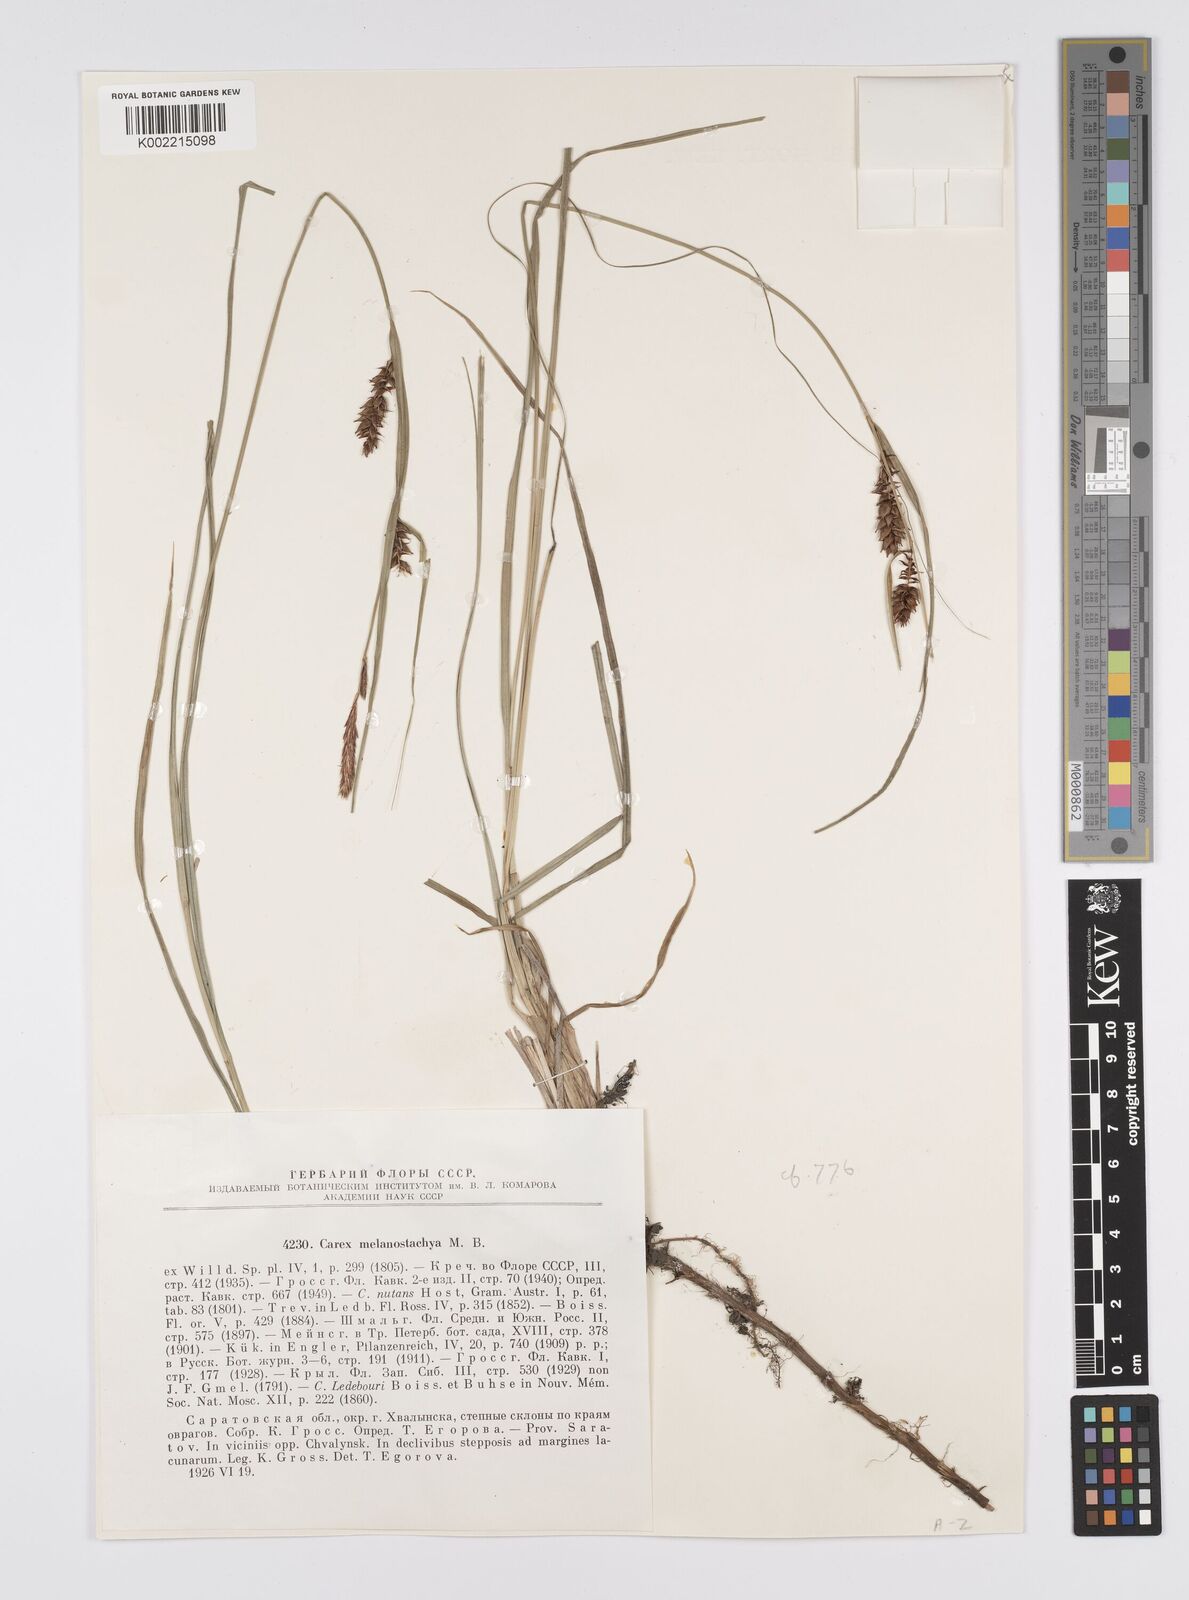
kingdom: Plantae
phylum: Tracheophyta
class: Liliopsida
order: Poales
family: Cyperaceae
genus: Carex
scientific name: Carex melanostachya
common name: Black-spiked sedge
